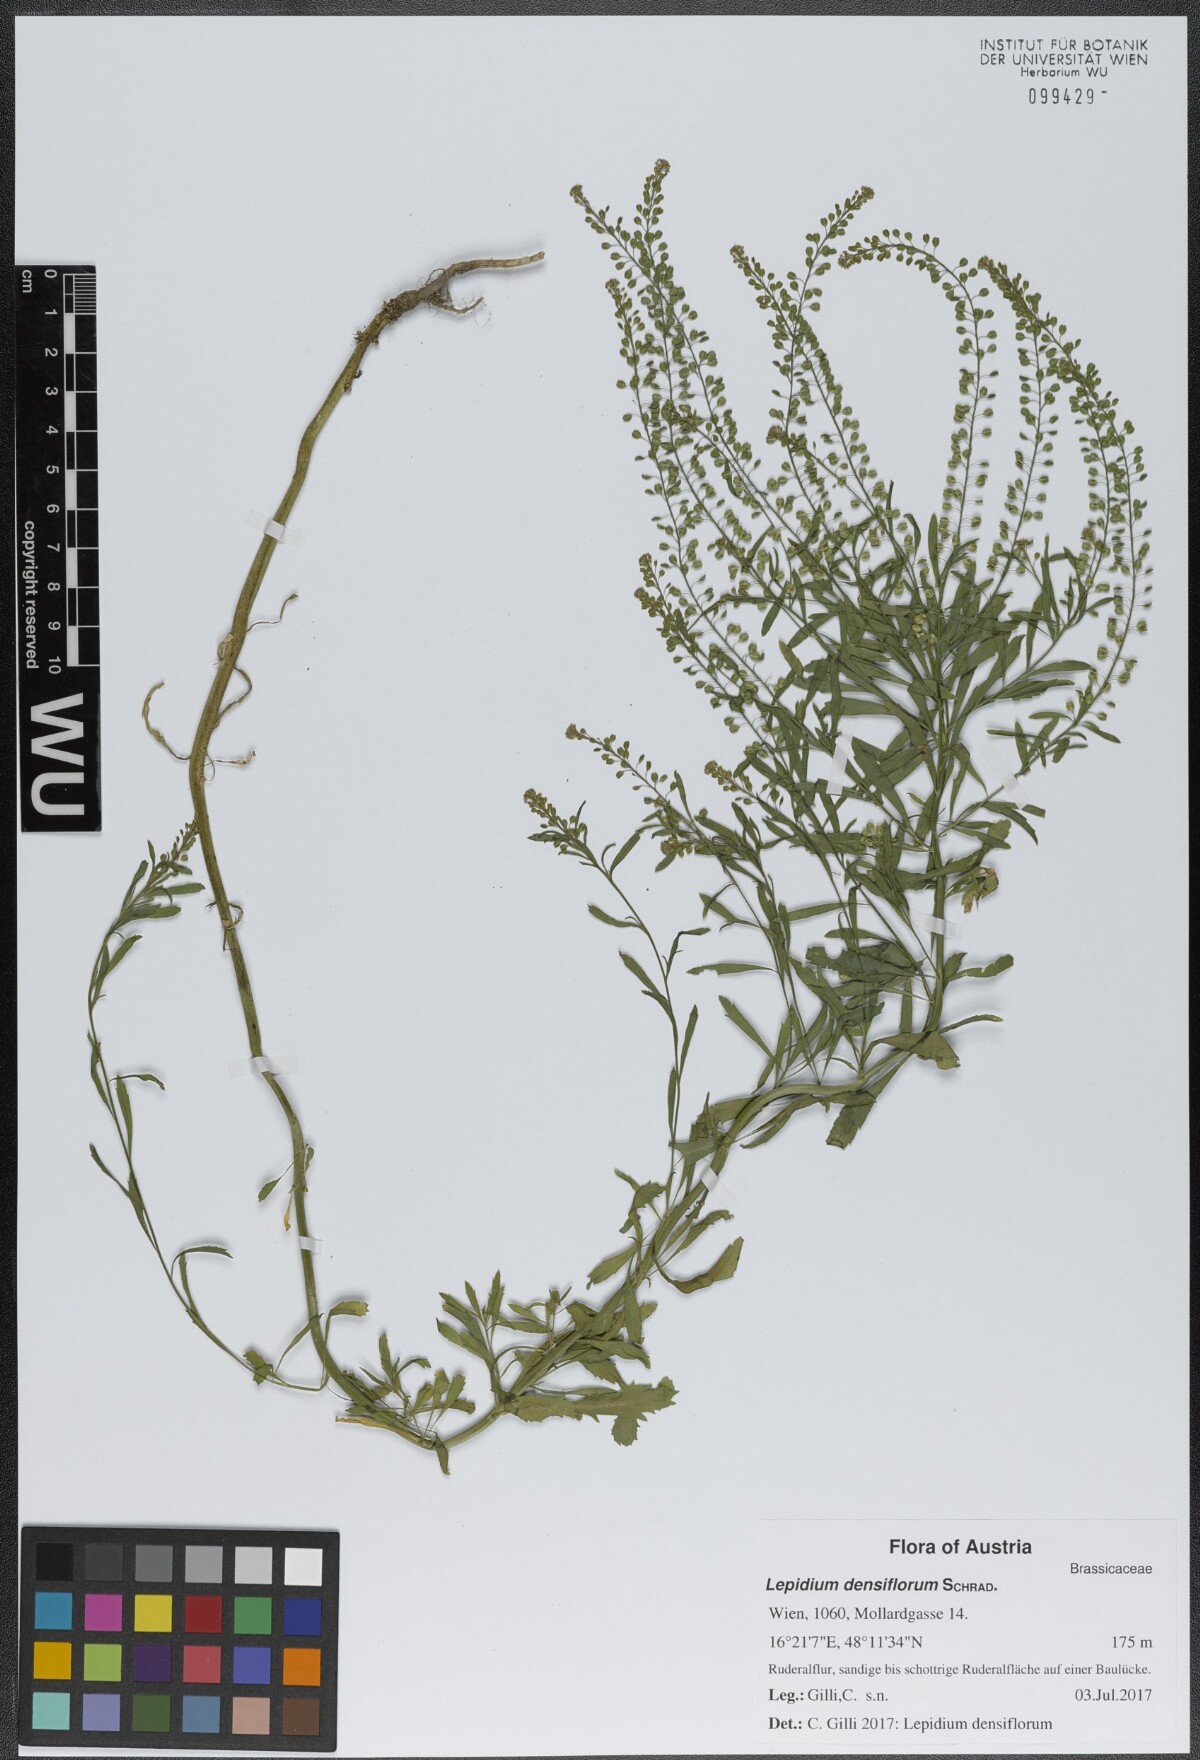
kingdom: Plantae
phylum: Tracheophyta
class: Magnoliopsida
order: Brassicales
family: Brassicaceae
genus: Lepidium
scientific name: Lepidium densiflorum
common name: Miner's pepperwort
